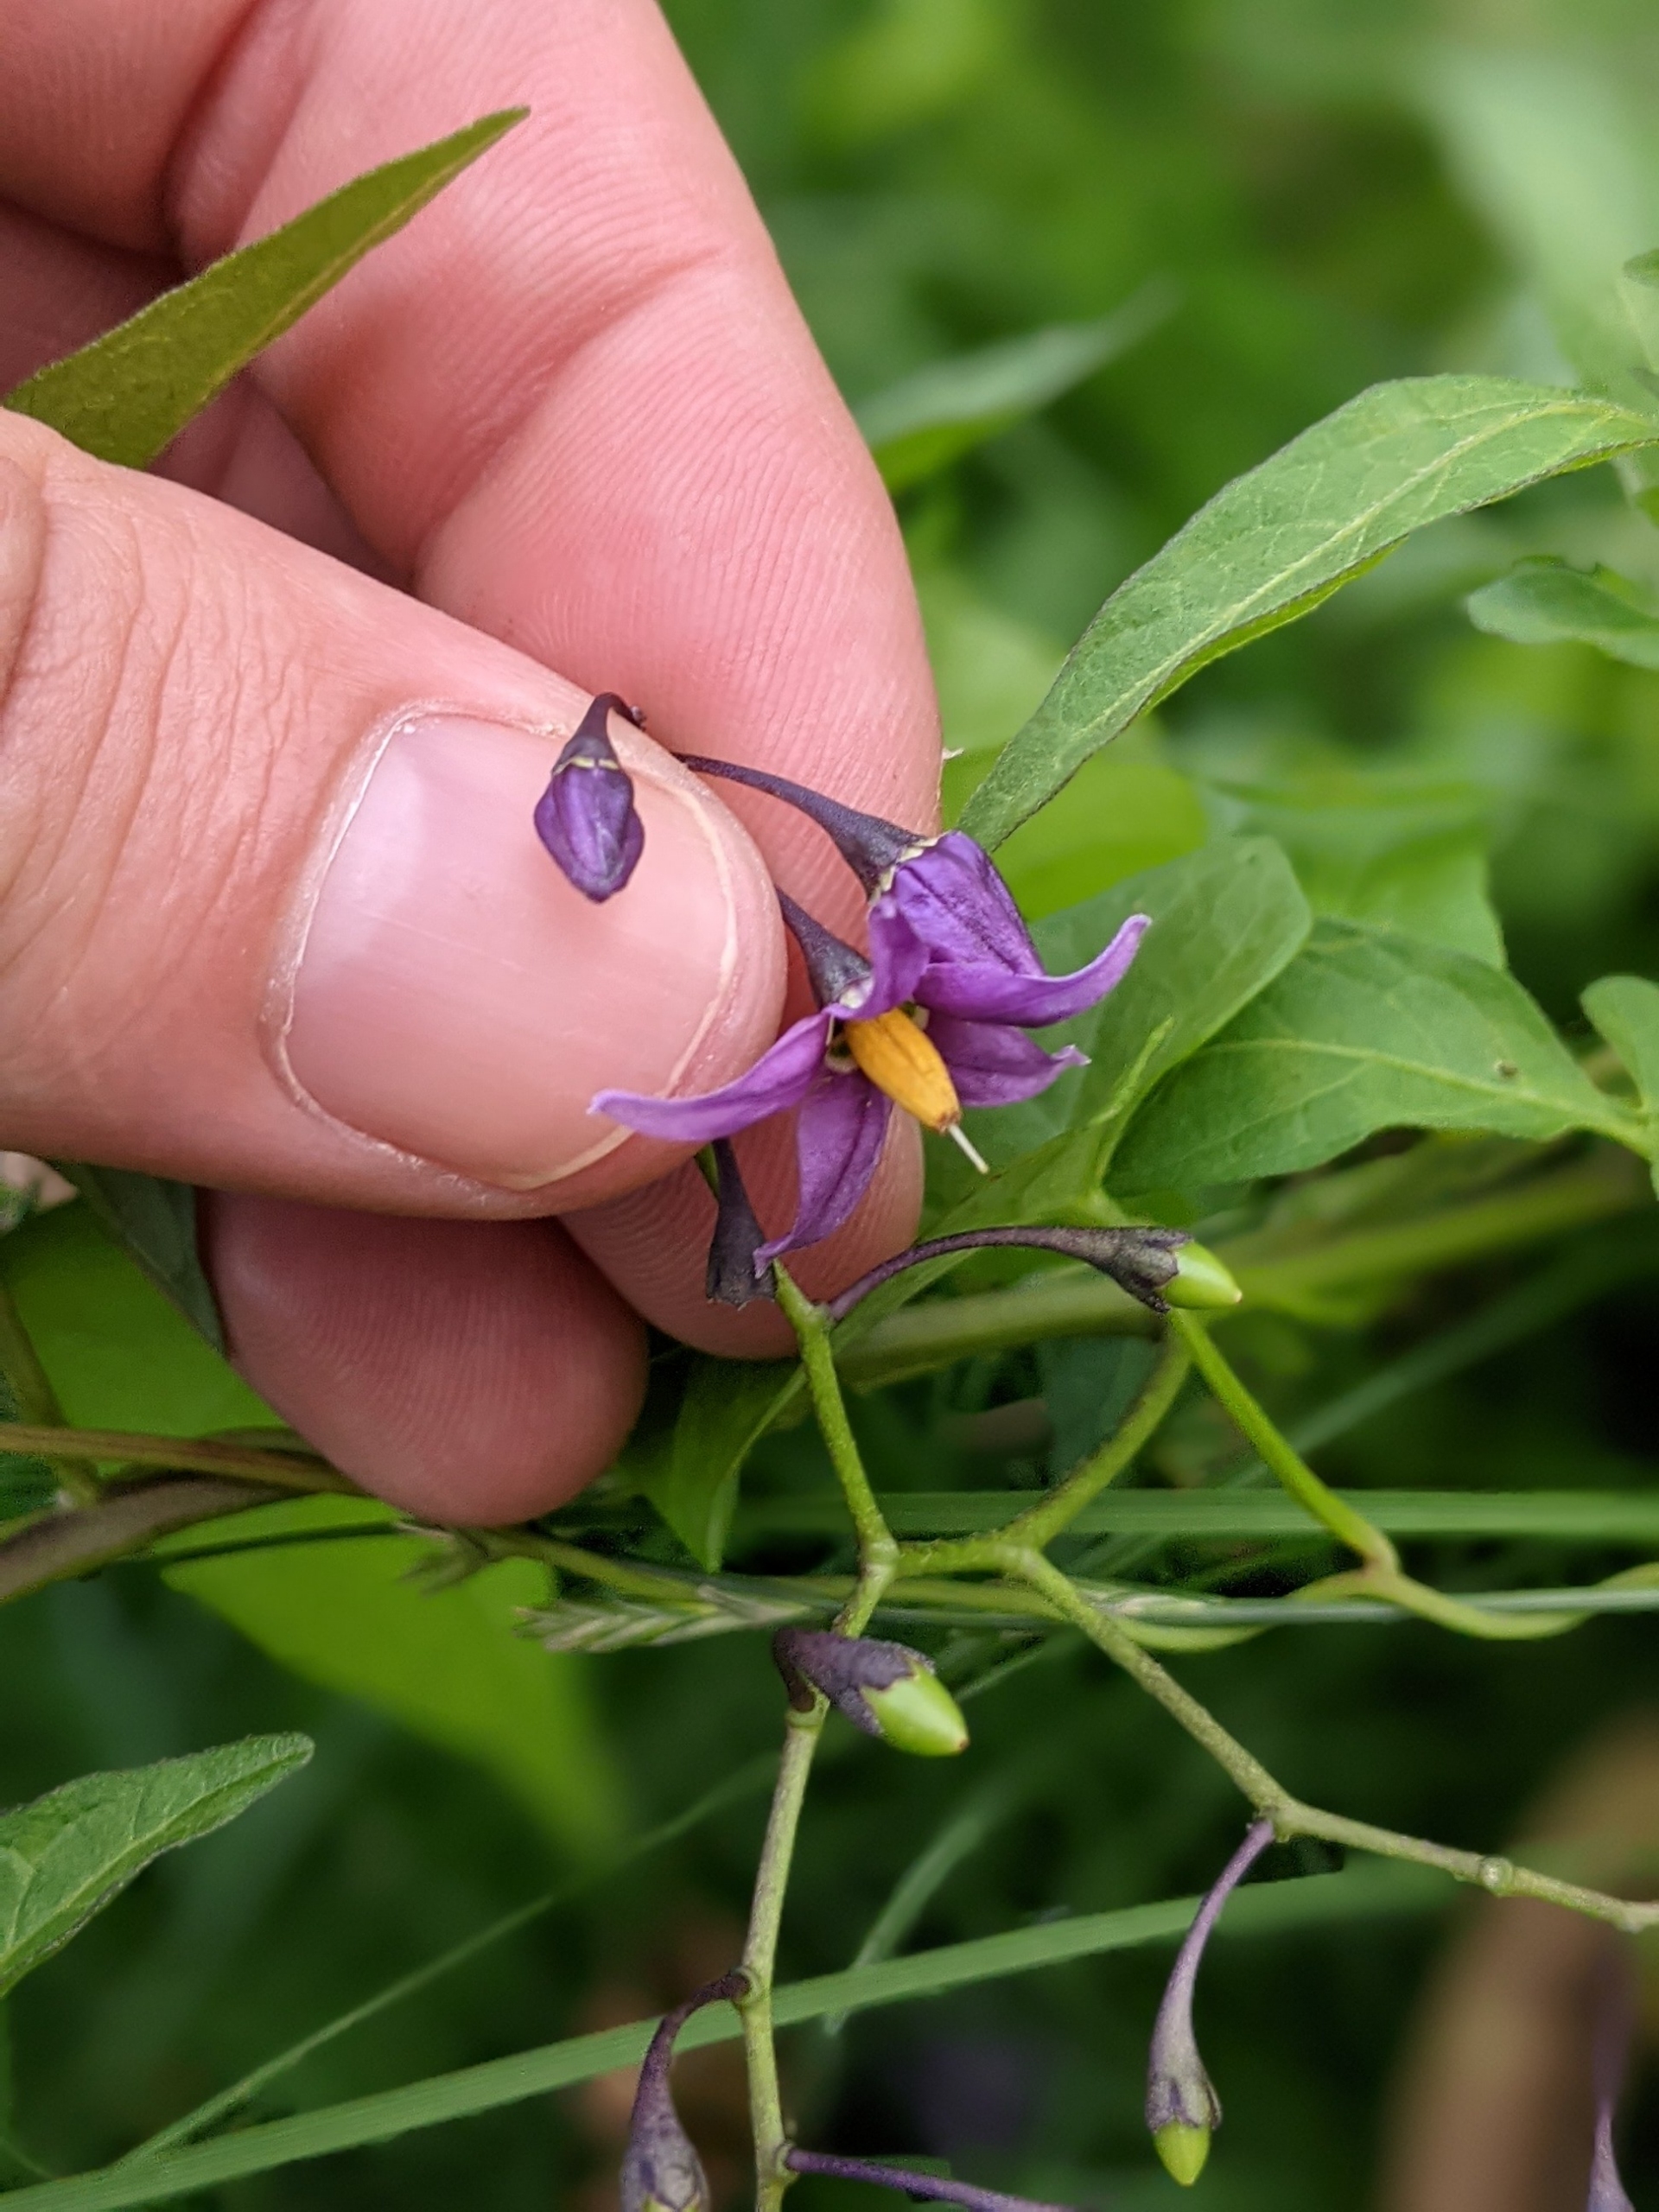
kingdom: Plantae
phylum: Tracheophyta
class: Magnoliopsida
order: Solanales
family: Solanaceae
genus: Solanum
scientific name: Solanum dulcamara
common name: Bittersød natskygge
